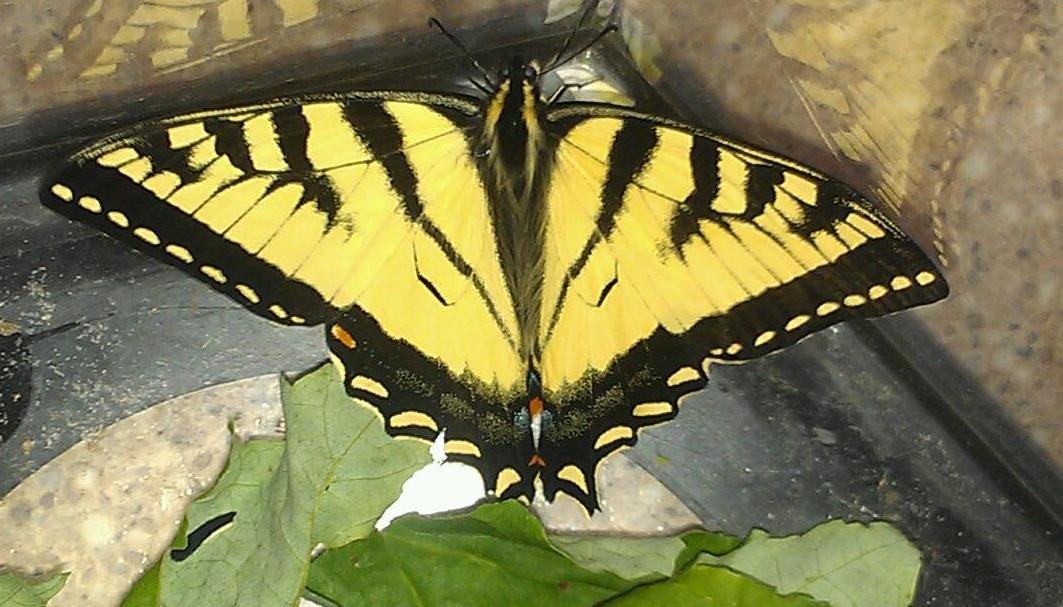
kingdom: Animalia
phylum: Arthropoda
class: Insecta
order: Lepidoptera
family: Papilionidae
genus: Pterourus
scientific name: Pterourus canadensis
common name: Canadian Tiger Swallowtail
